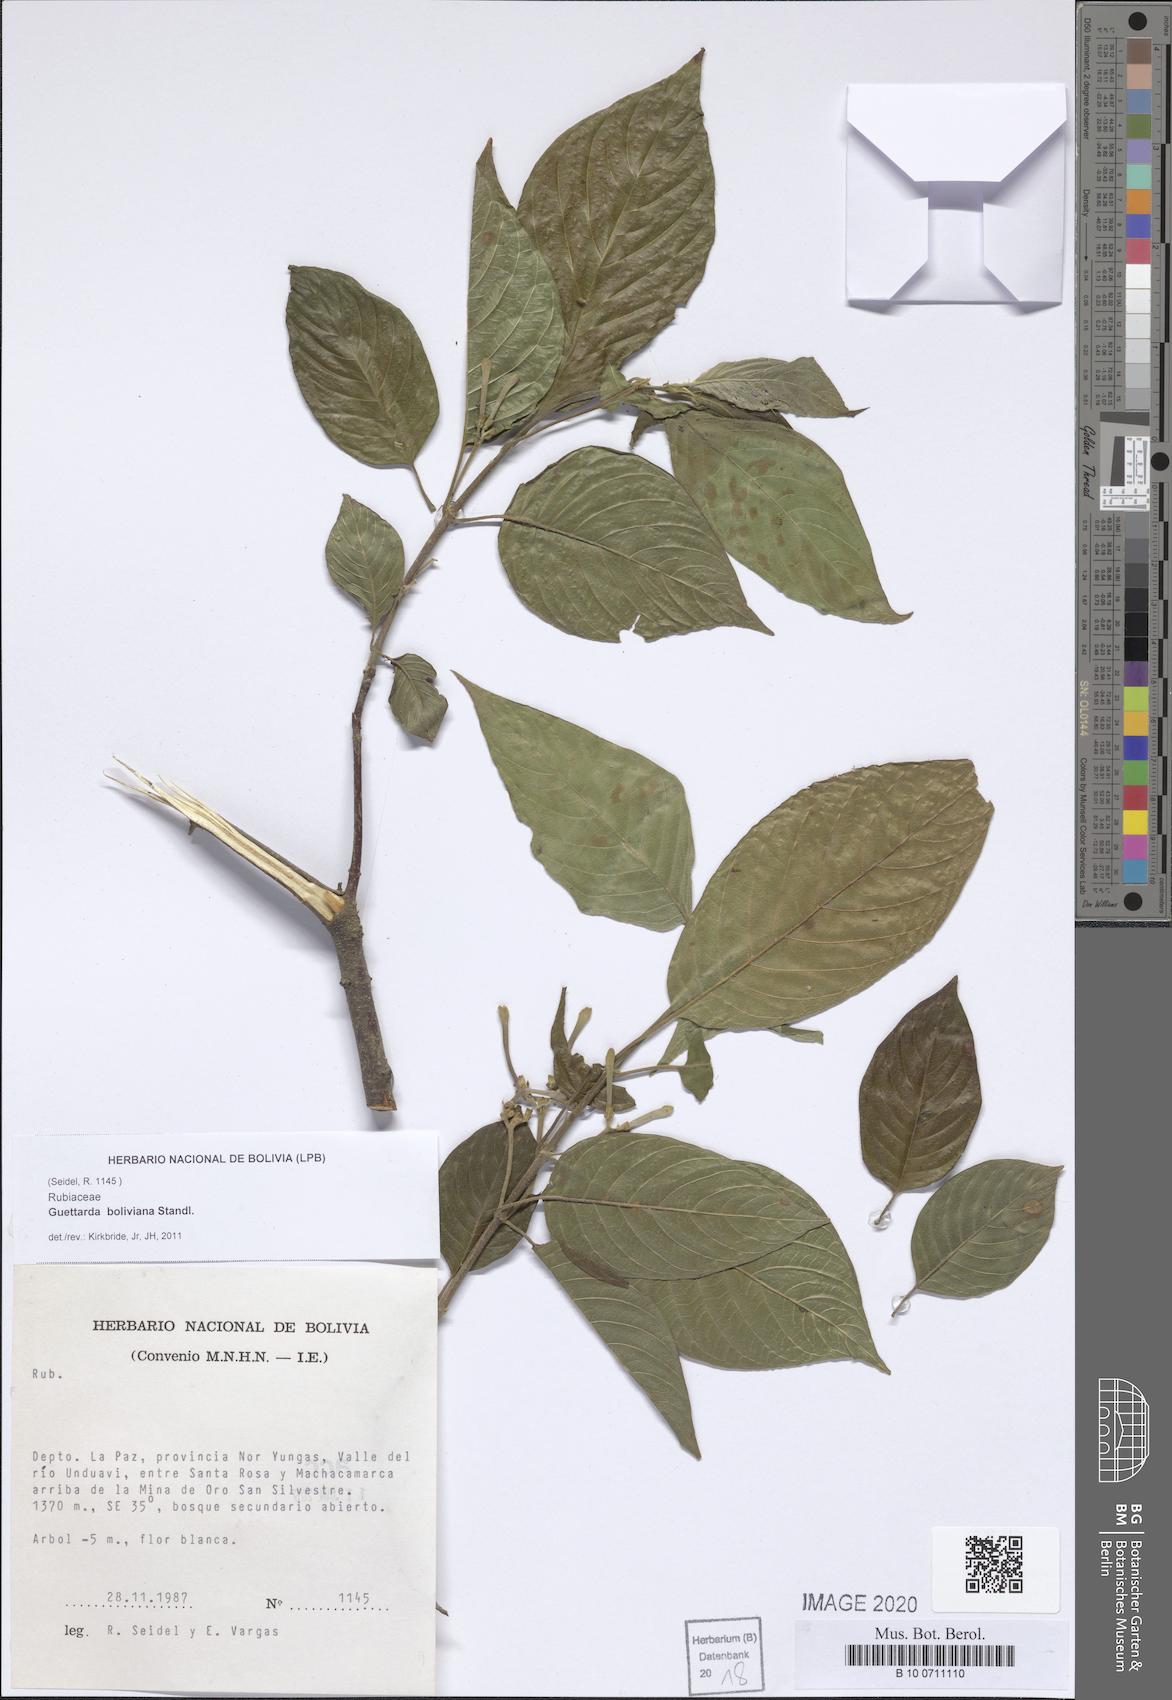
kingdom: Plantae
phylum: Tracheophyta
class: Magnoliopsida
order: Gentianales
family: Rubiaceae
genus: Guettarda
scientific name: Guettarda pohliana
